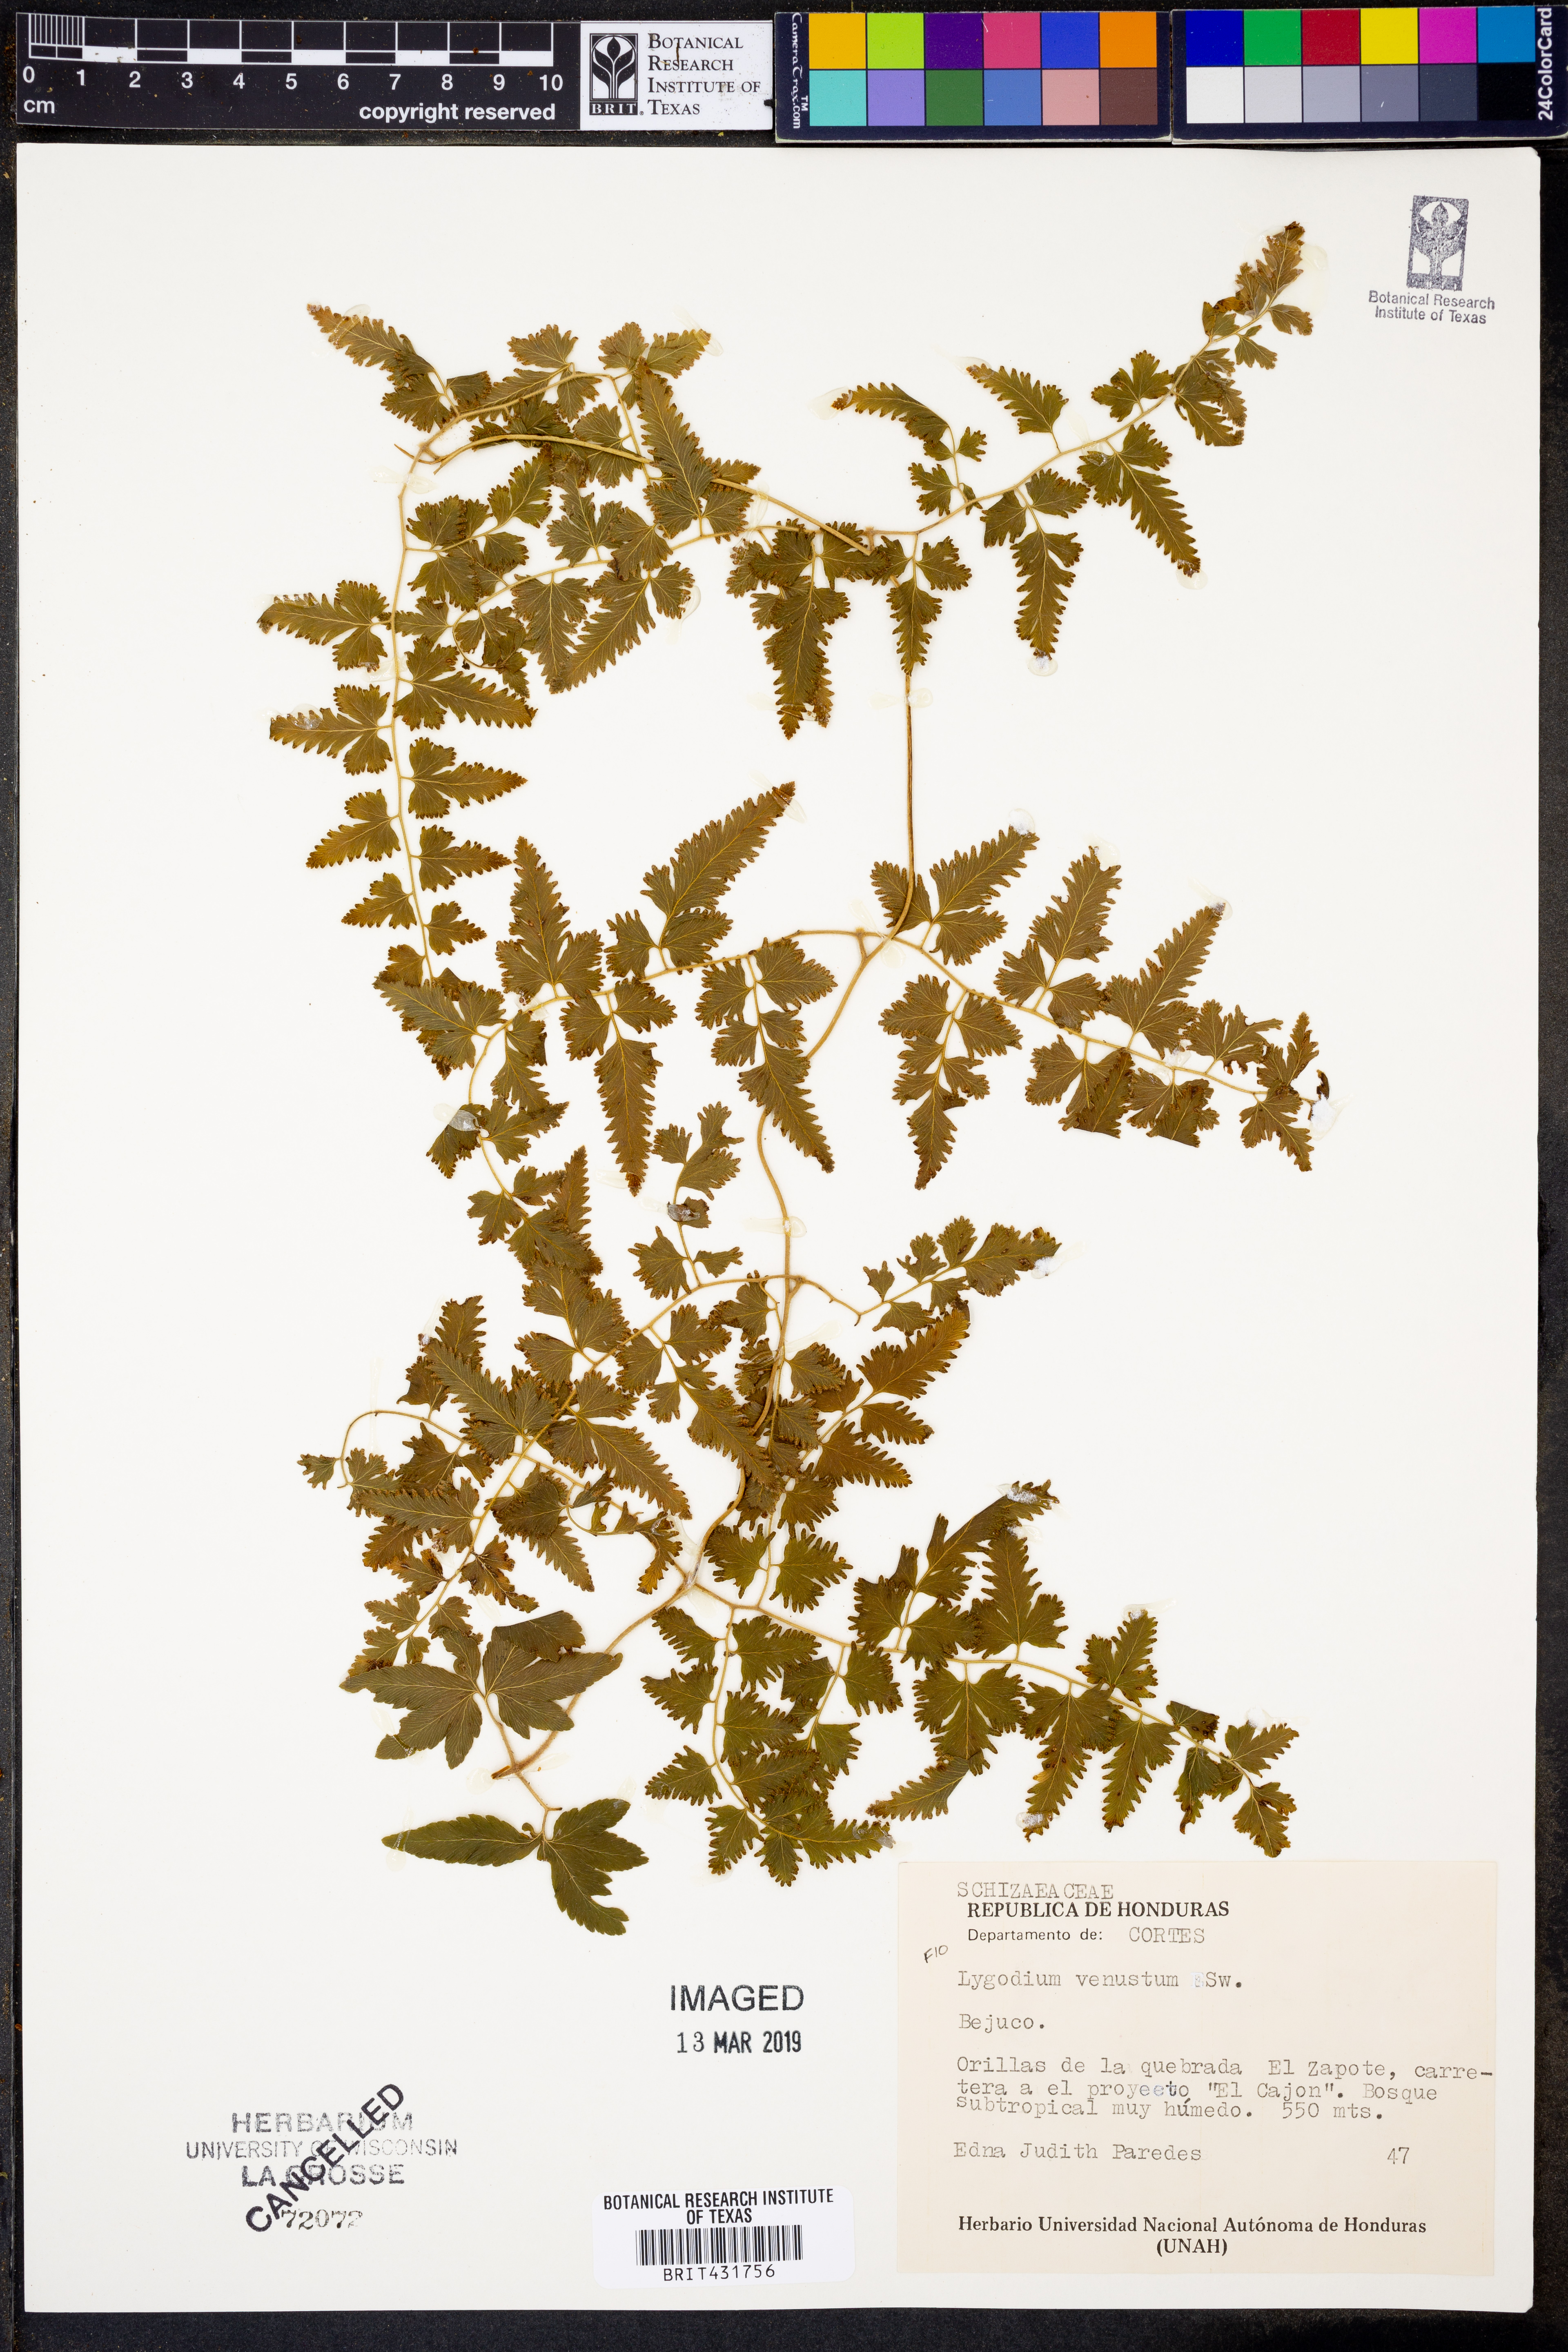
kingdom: Plantae
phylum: Tracheophyta
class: Polypodiopsida
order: Schizaeales
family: Lygodiaceae
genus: Lygodium
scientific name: Lygodium venustum
